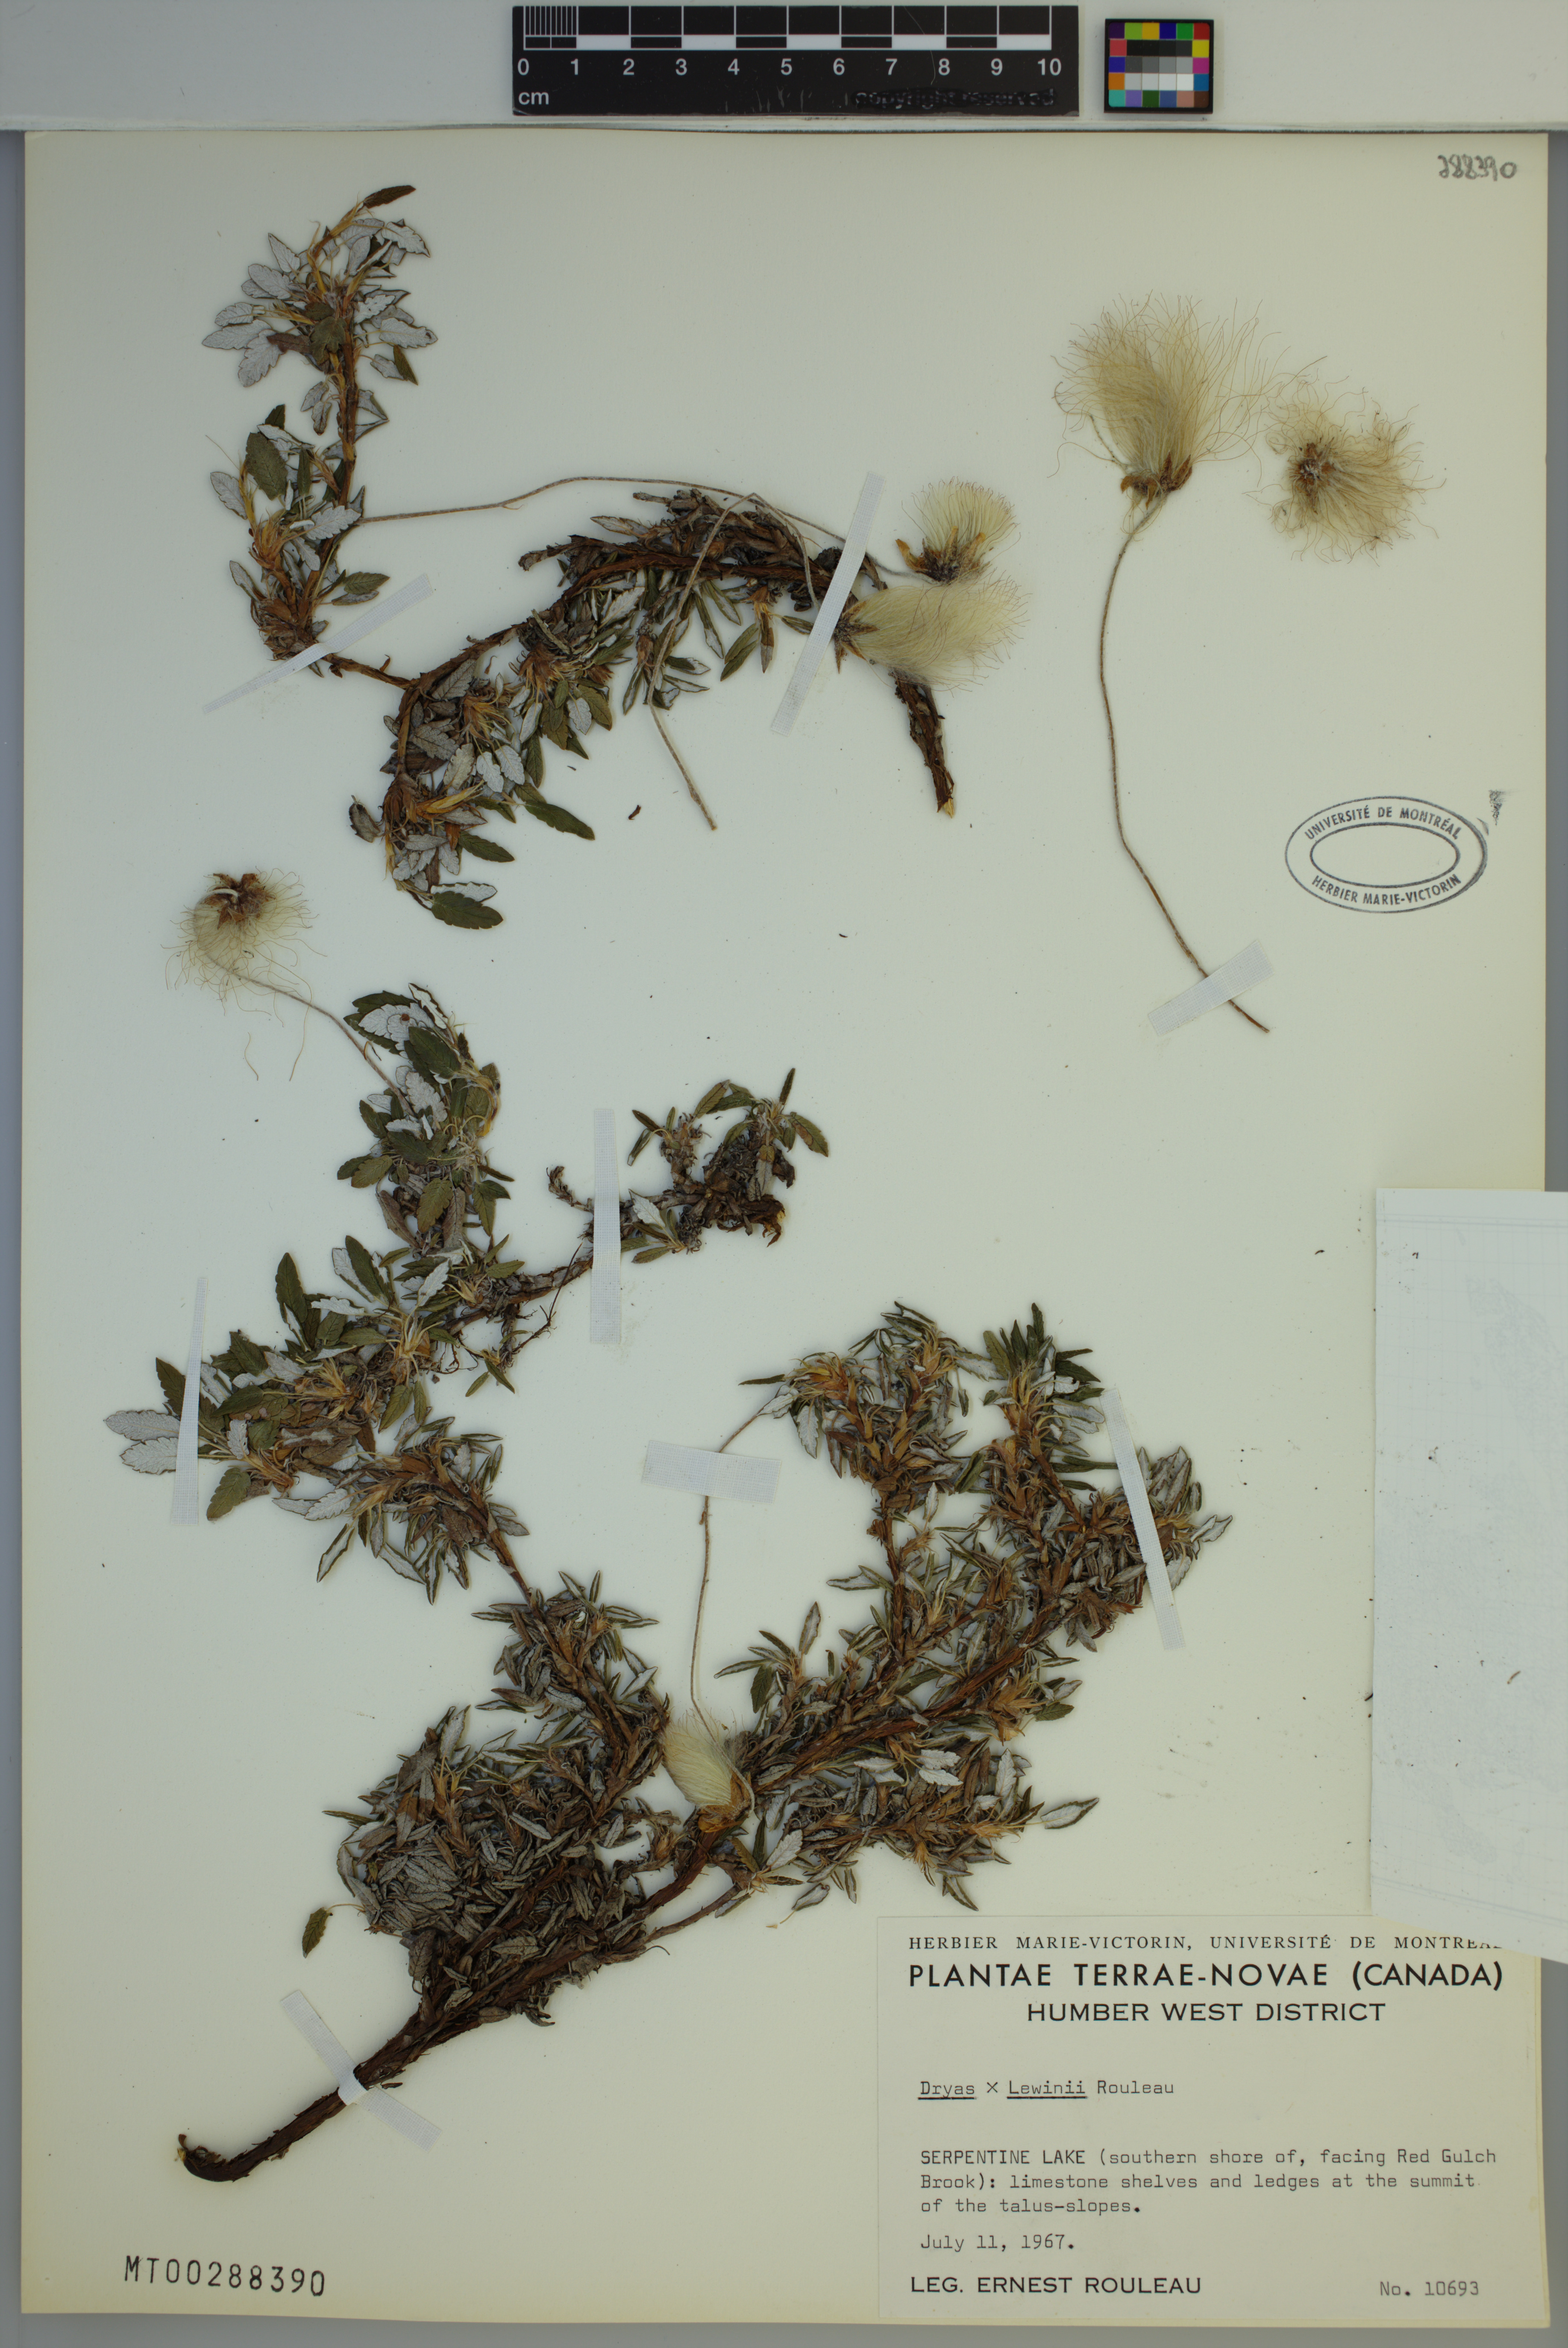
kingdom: Plantae
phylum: Tracheophyta
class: Magnoliopsida
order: Rosales
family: Rosaceae
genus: Dryas
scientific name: Dryas lewinii
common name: Lewin's mountain avens
